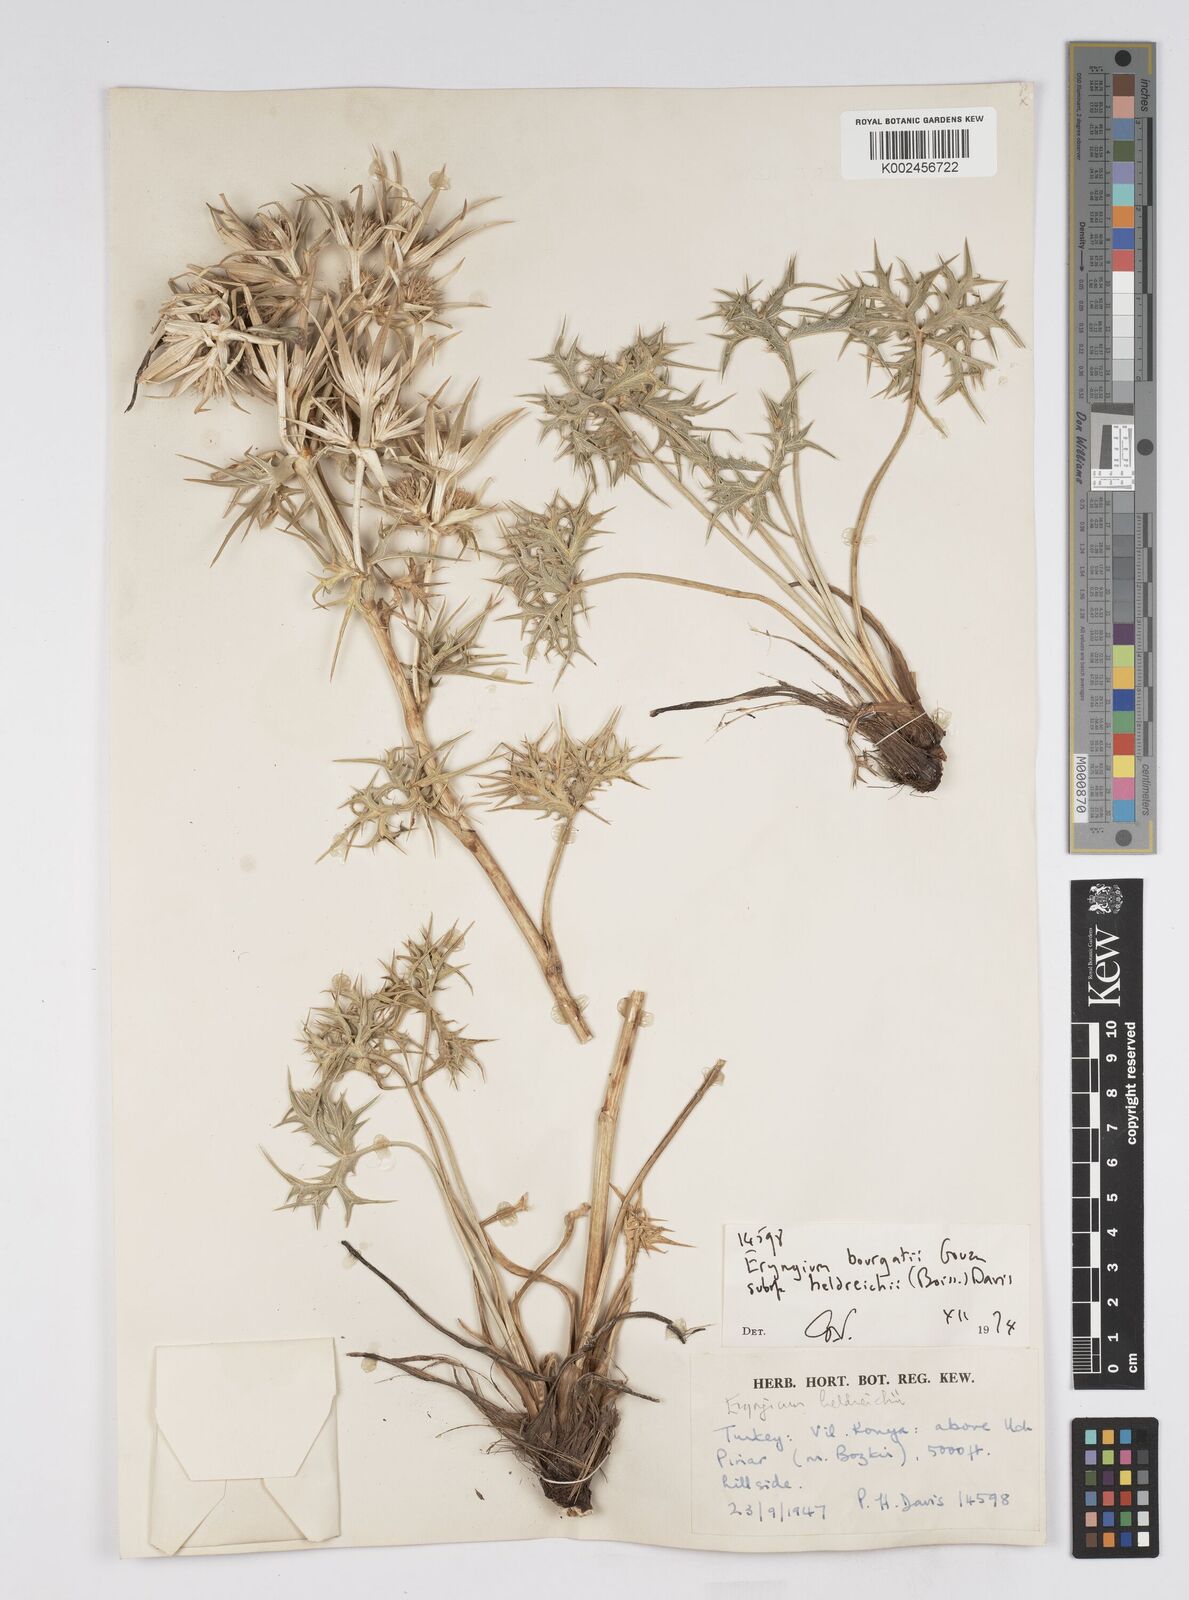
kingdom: Plantae
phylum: Tracheophyta
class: Magnoliopsida
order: Apiales
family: Apiaceae
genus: Eryngium
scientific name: Eryngium heldreichii
